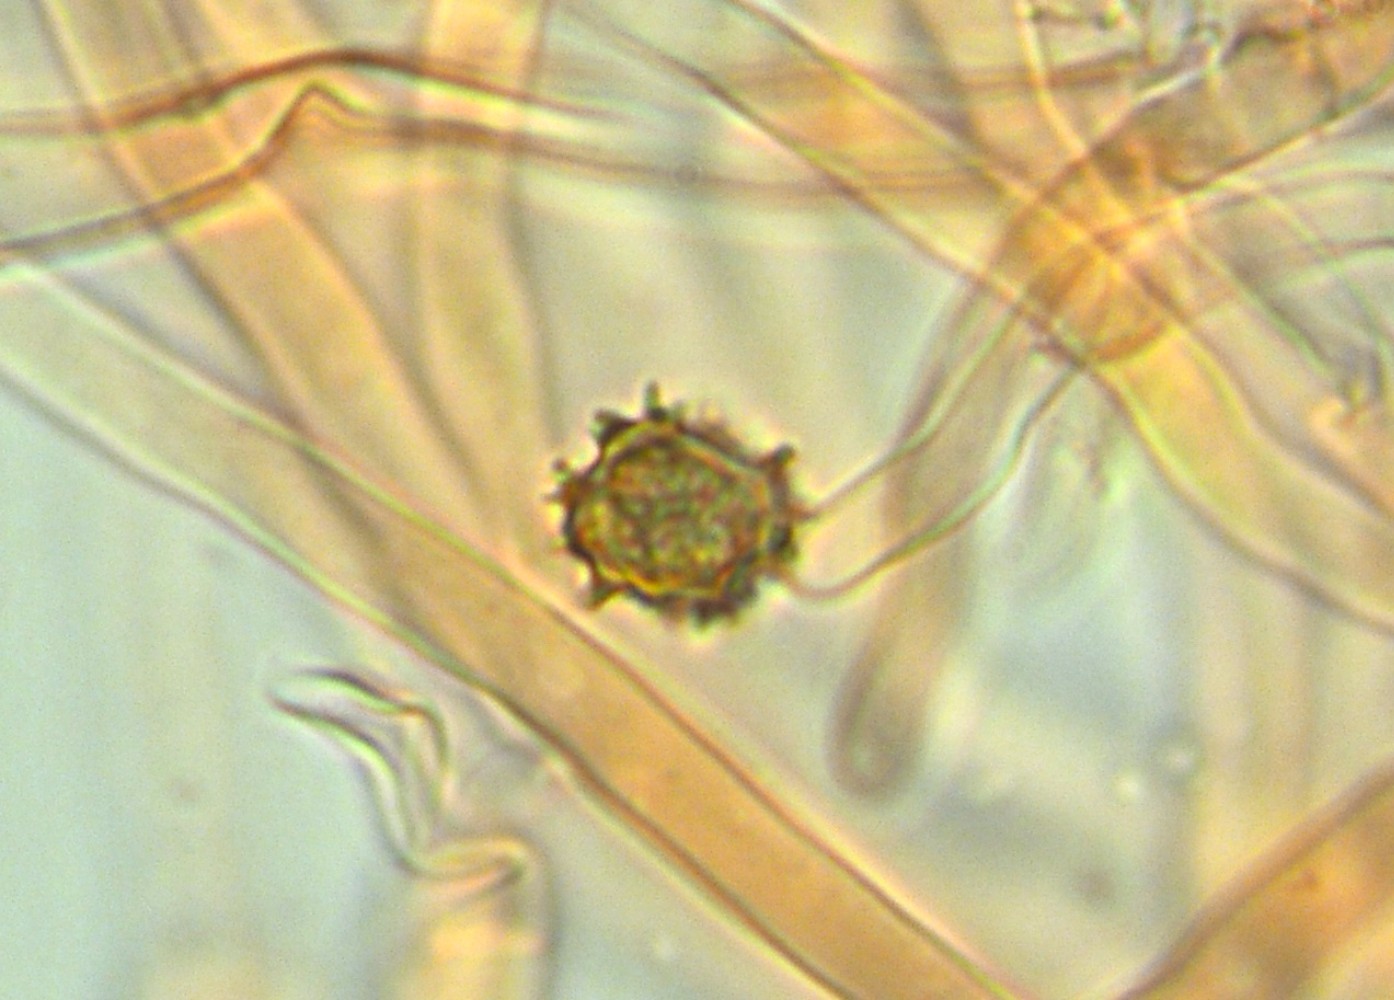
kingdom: Fungi
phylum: Basidiomycota
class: Agaricomycetes
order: Thelephorales
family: Thelephoraceae
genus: Thelephora
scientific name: Thelephora palmata
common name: grenet frynsesvamp
